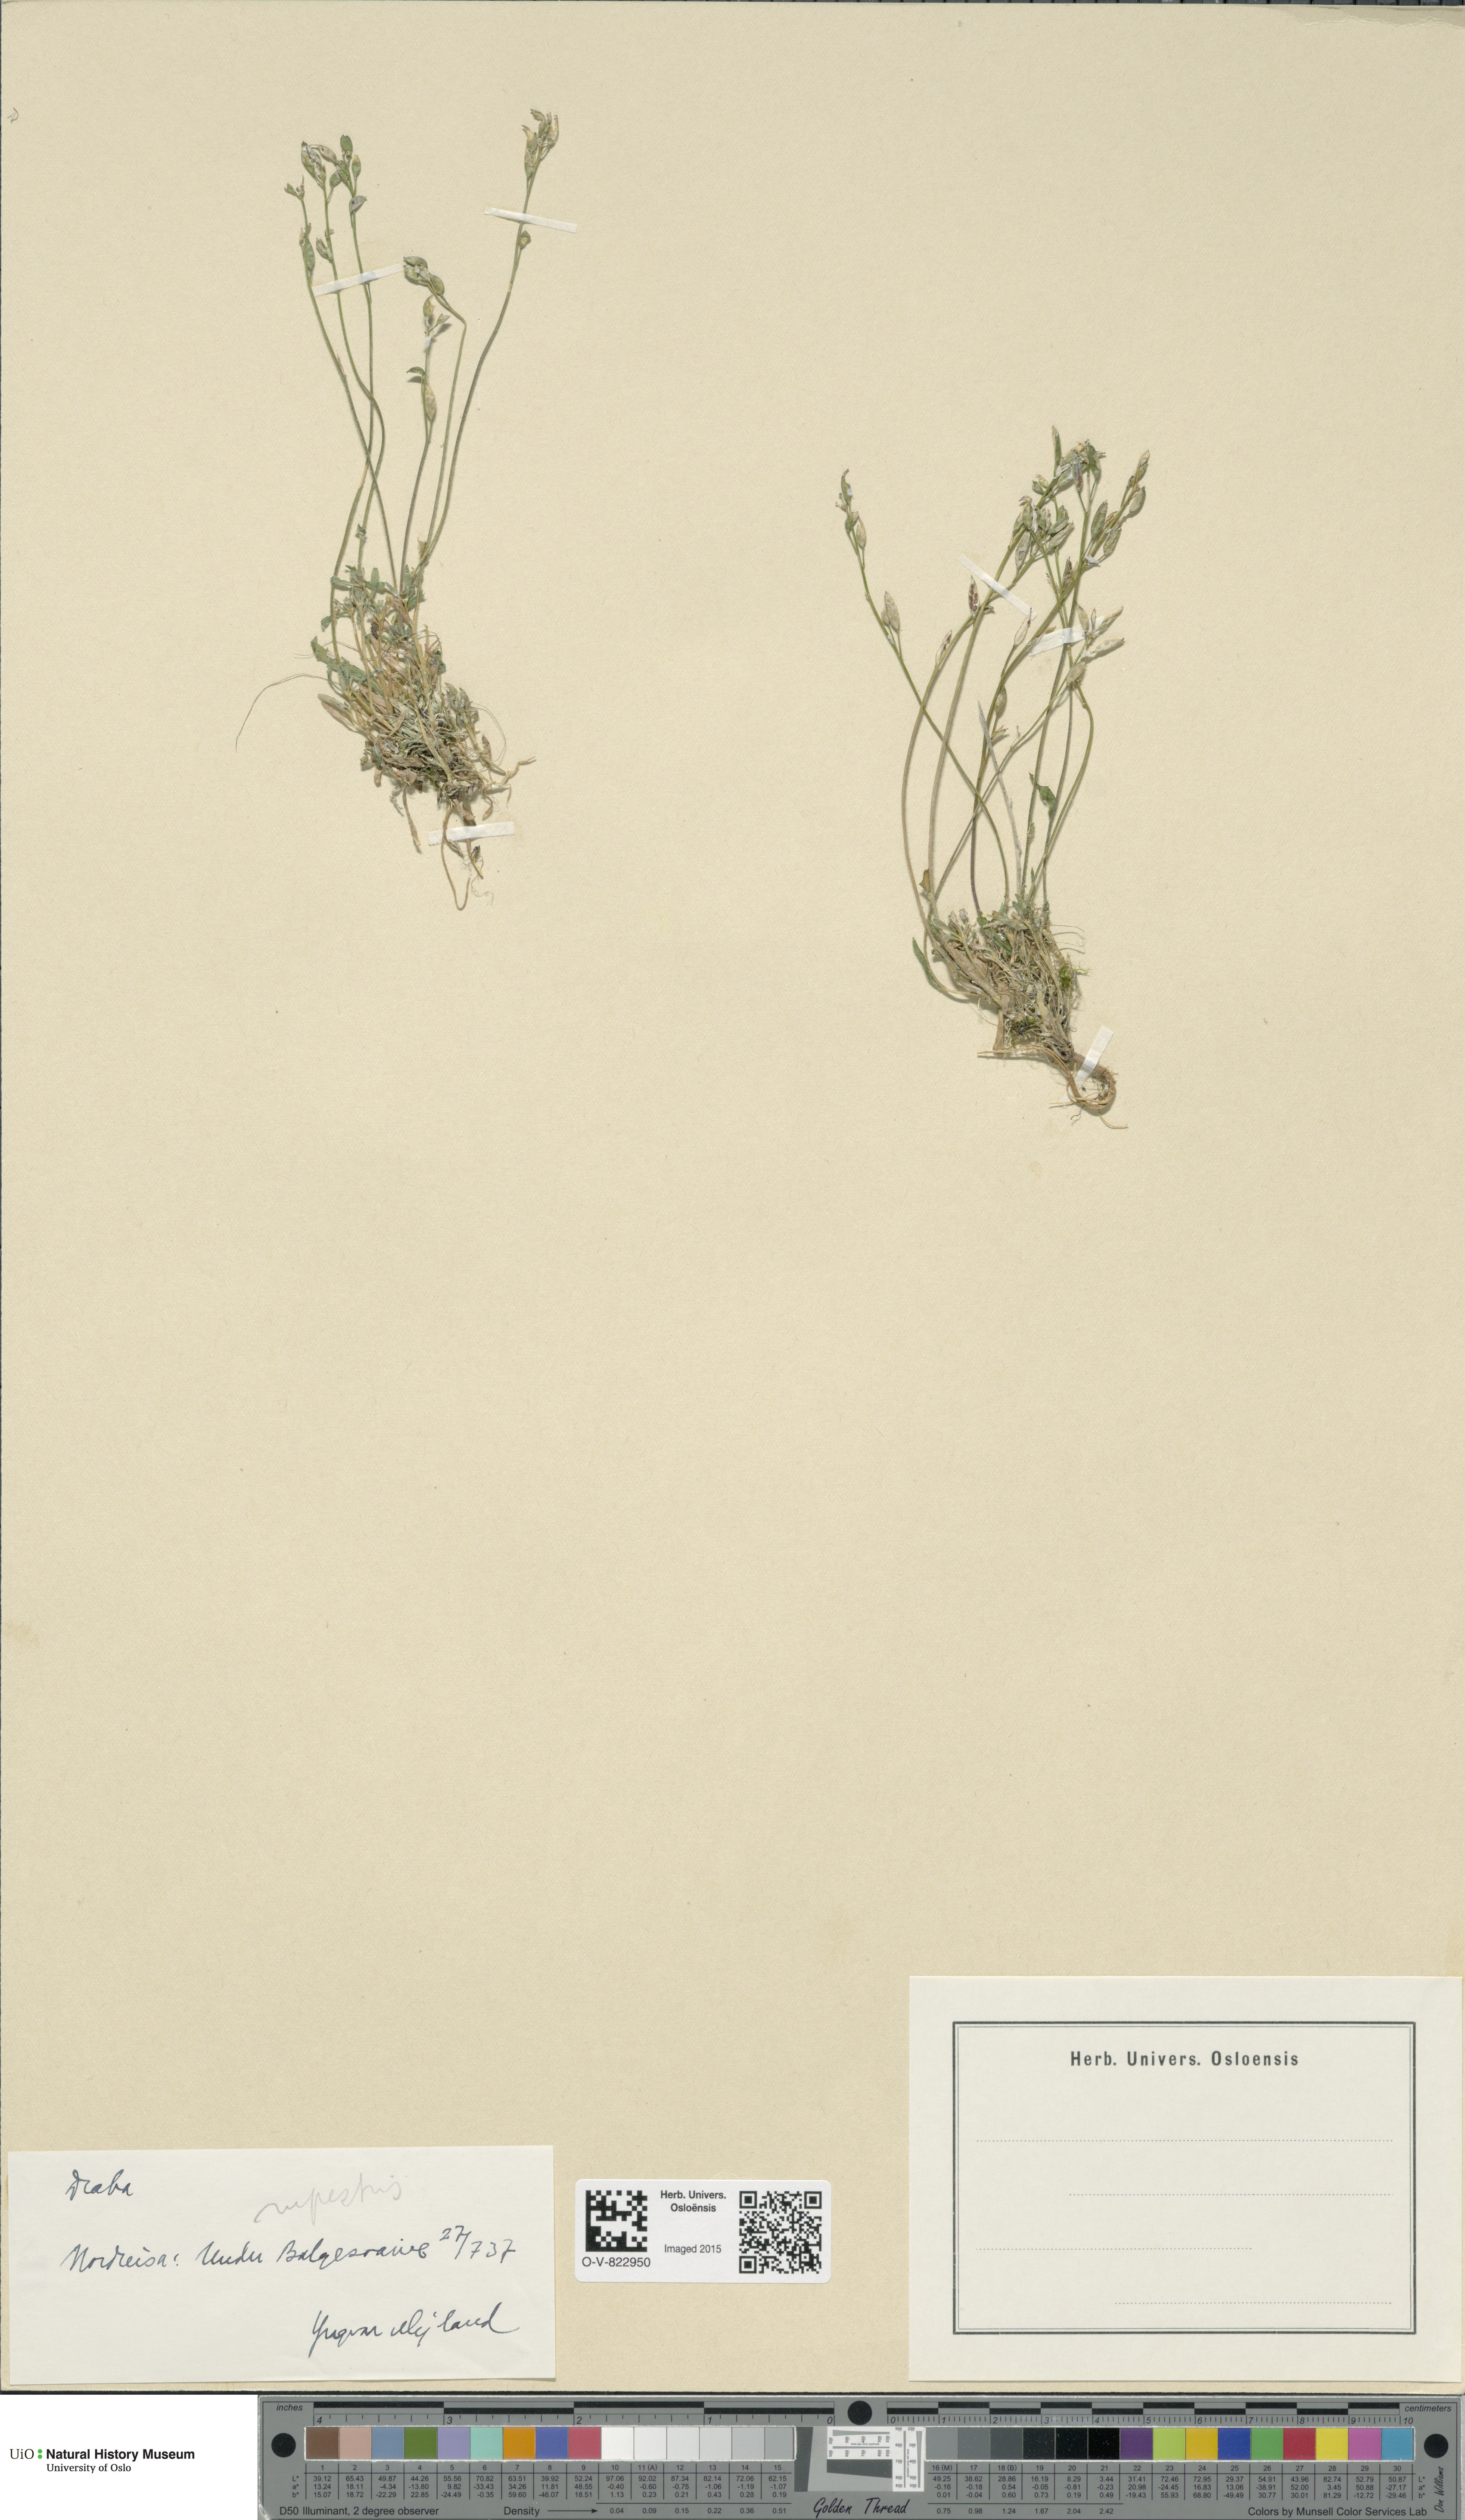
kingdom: Plantae
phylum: Tracheophyta
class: Magnoliopsida
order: Brassicales
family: Brassicaceae
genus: Draba
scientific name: Draba norvegica
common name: Rock whitlowgrass
